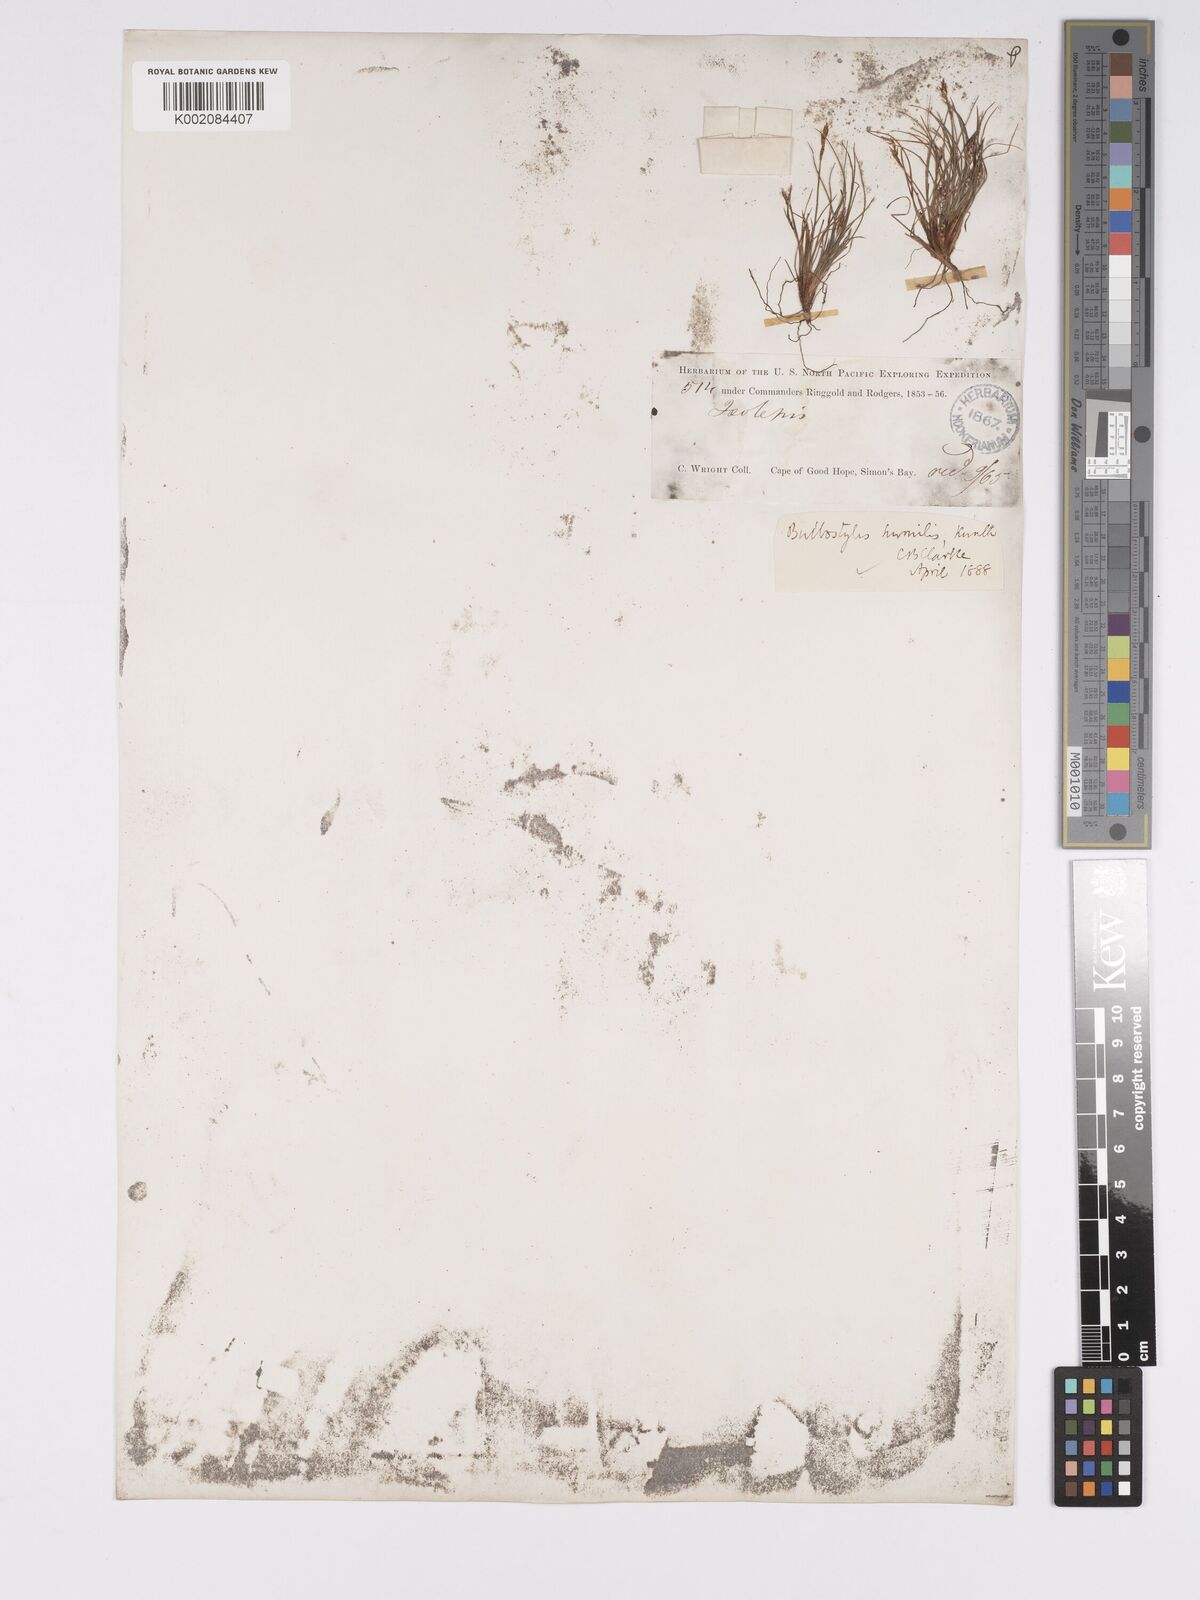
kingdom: Plantae
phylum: Tracheophyta
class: Liliopsida
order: Poales
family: Cyperaceae
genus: Bulbostylis
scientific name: Bulbostylis humilis
